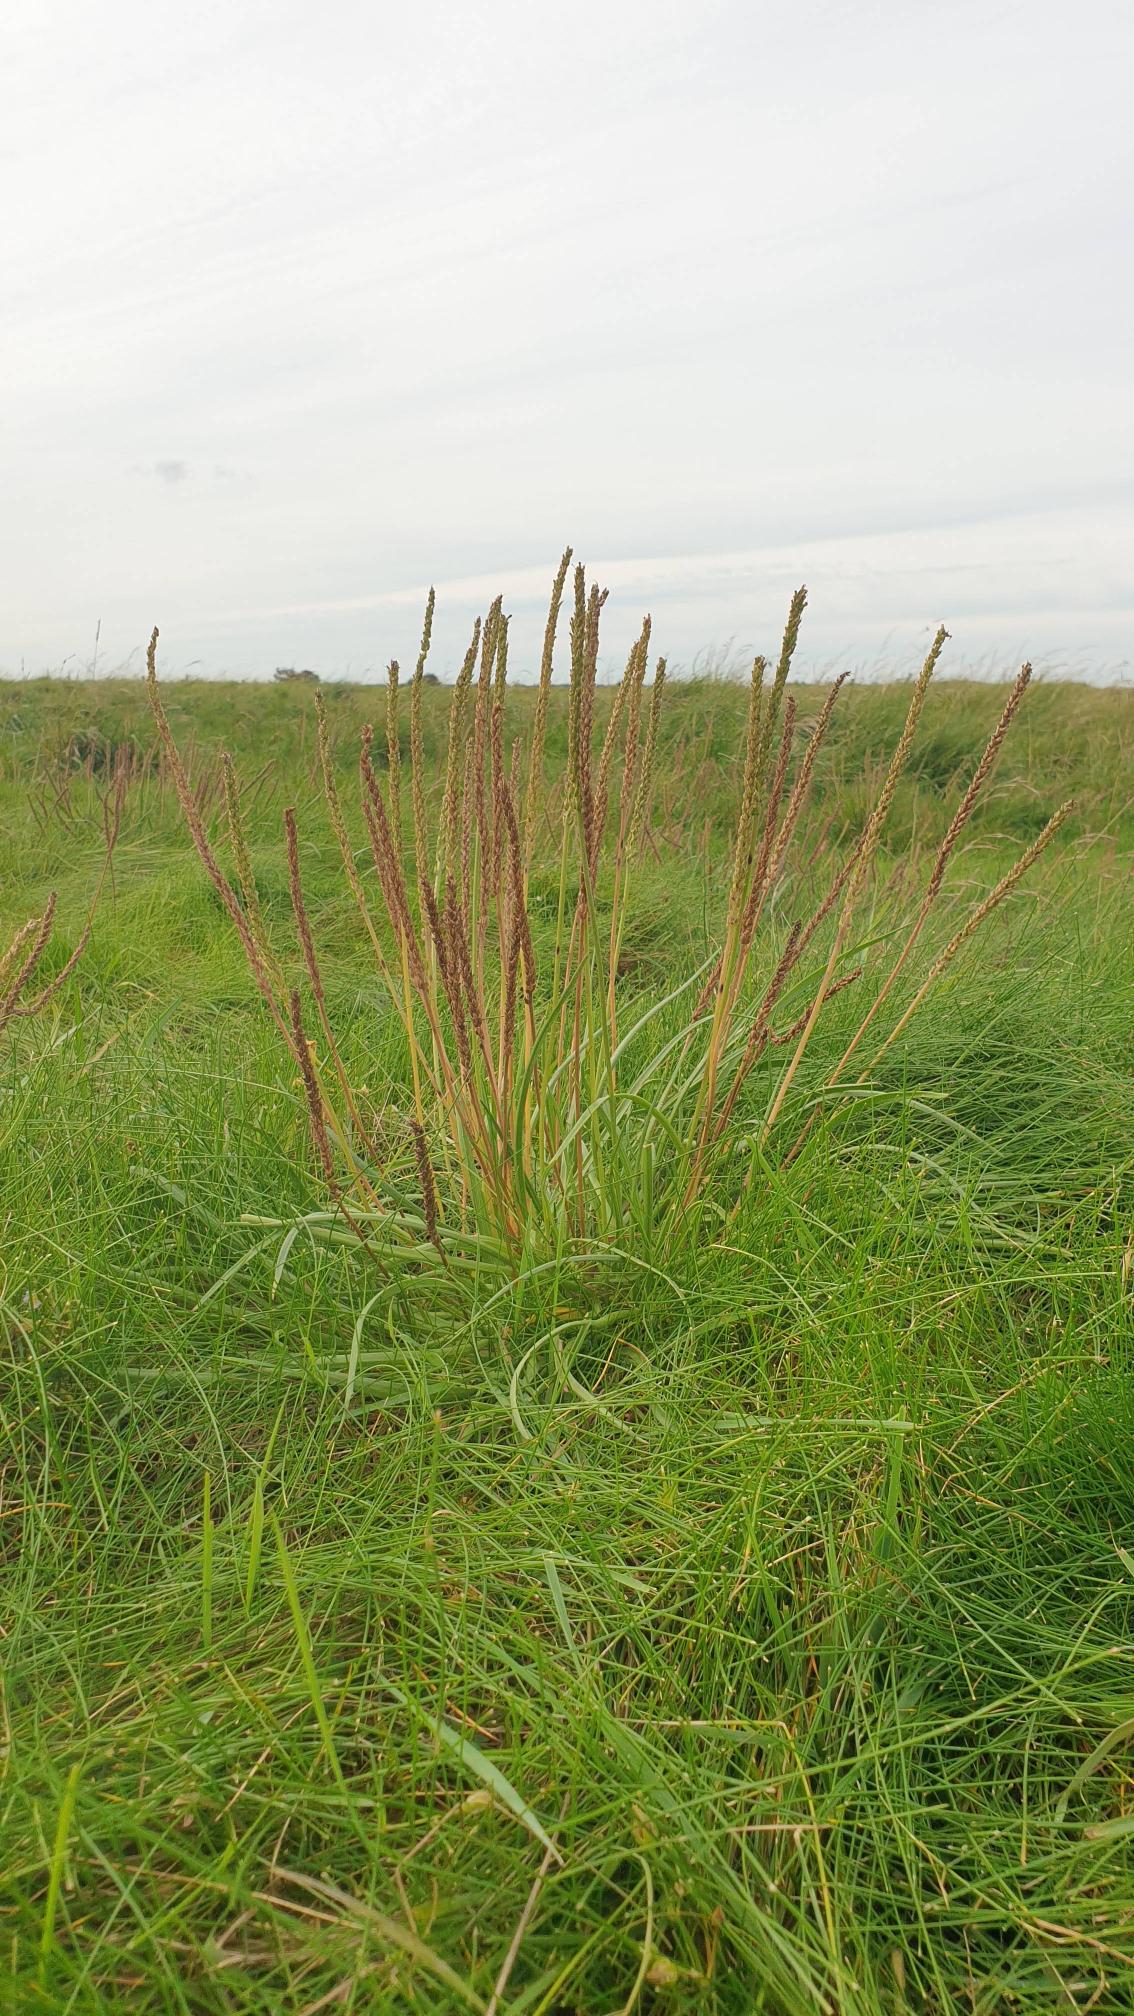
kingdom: Plantae
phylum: Tracheophyta
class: Magnoliopsida
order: Lamiales
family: Plantaginaceae
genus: Plantago
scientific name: Plantago maritima
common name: Strand-vejbred
